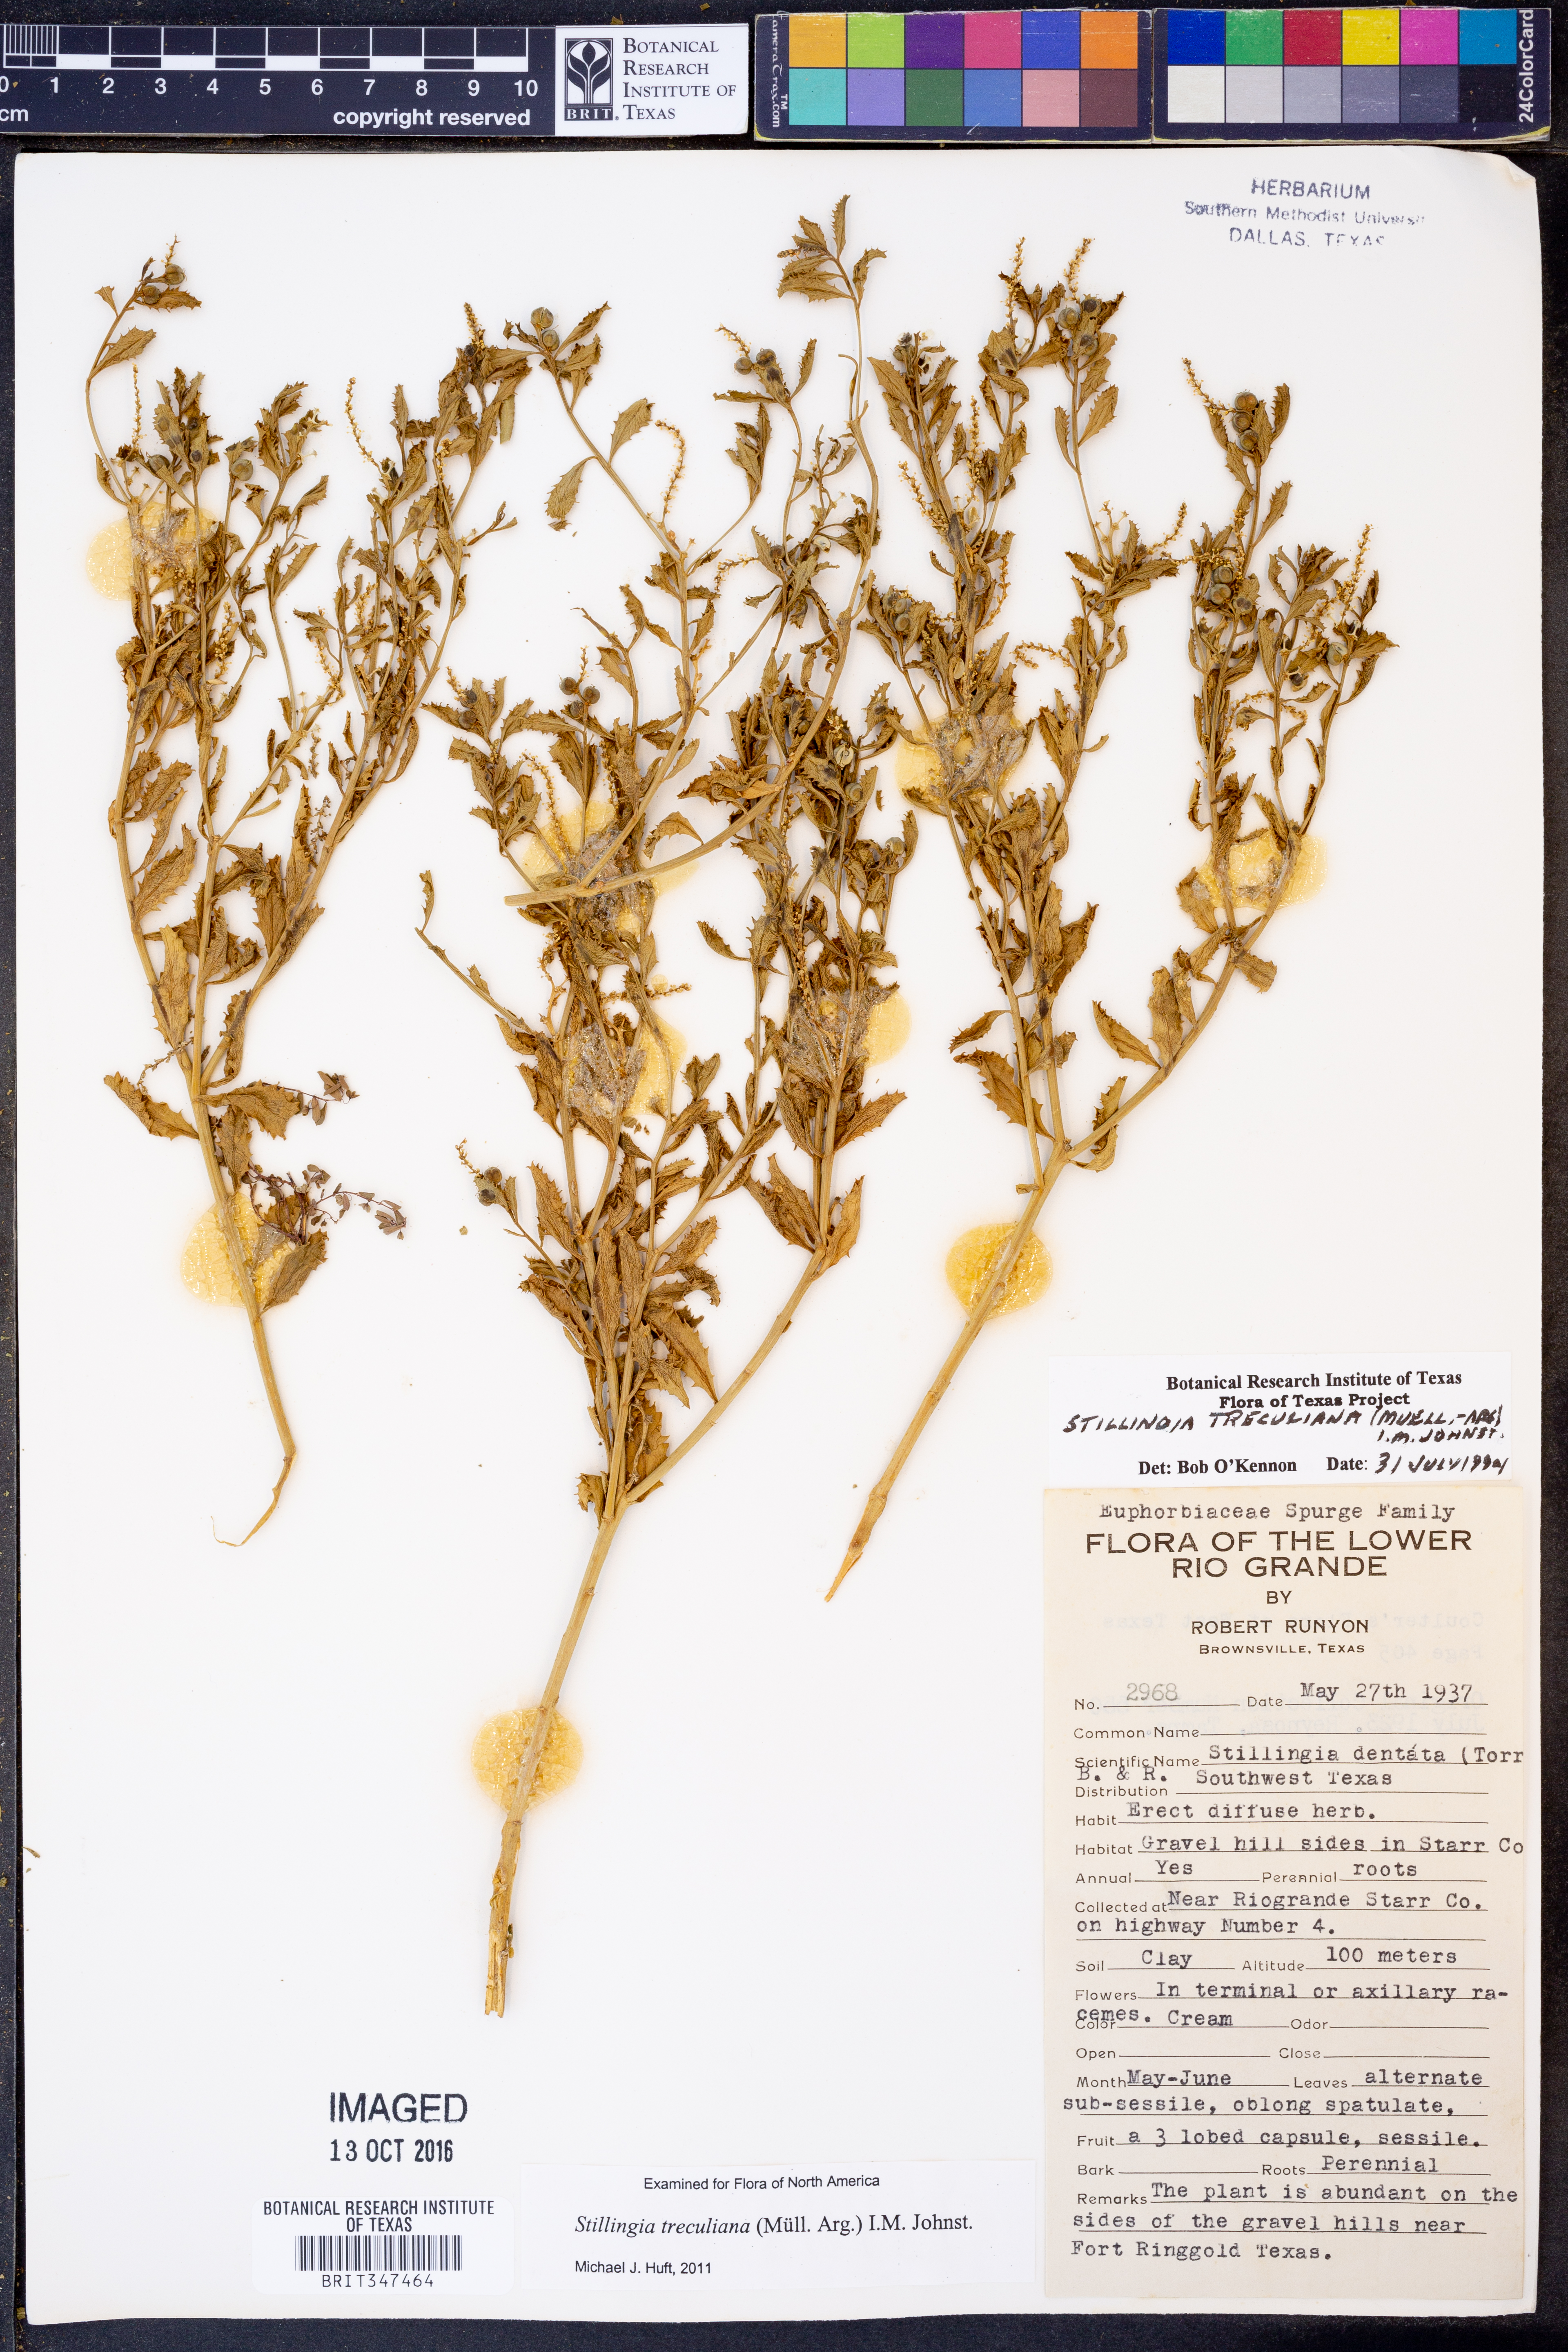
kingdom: Plantae
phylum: Tracheophyta
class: Magnoliopsida
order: Malpighiales
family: Euphorbiaceae
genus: Stillingia
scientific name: Stillingia treculiana
